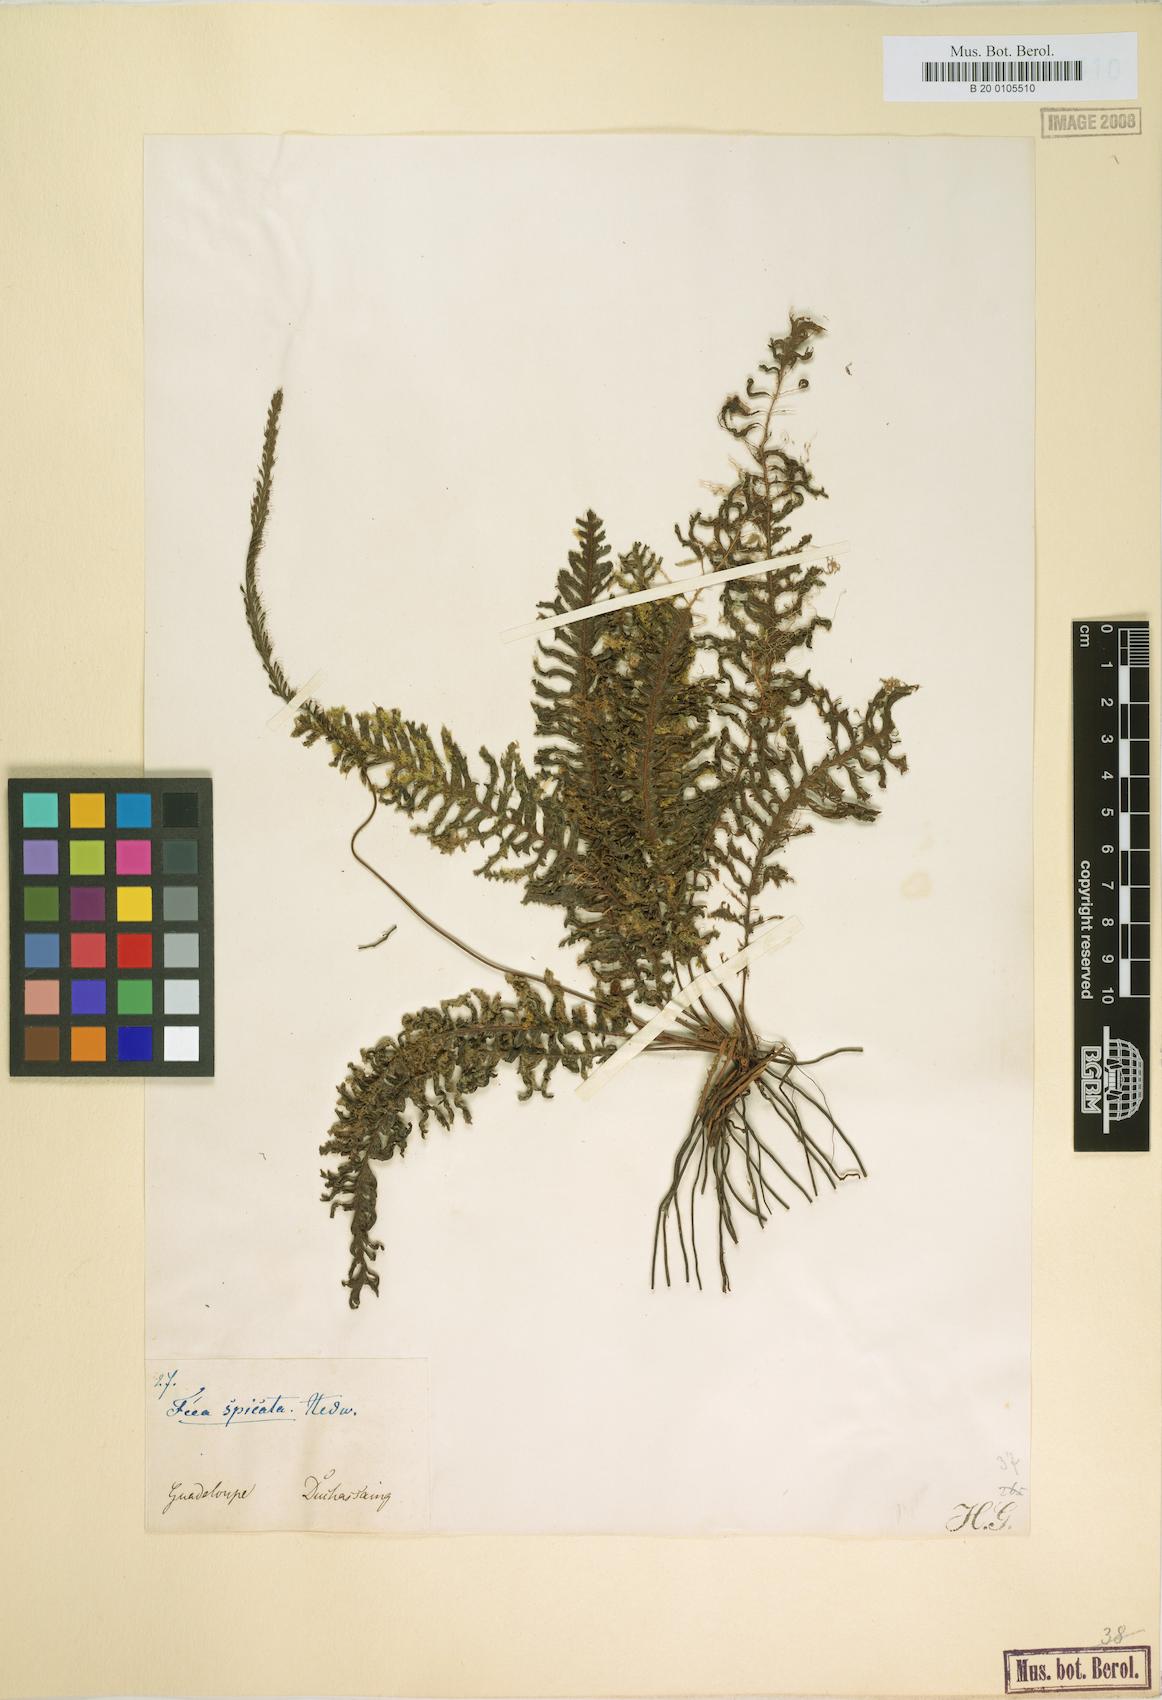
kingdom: Plantae
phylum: Tracheophyta
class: Polypodiopsida
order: Hymenophyllales
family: Hymenophyllaceae
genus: Trichomanes
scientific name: Trichomanes osmundoides
